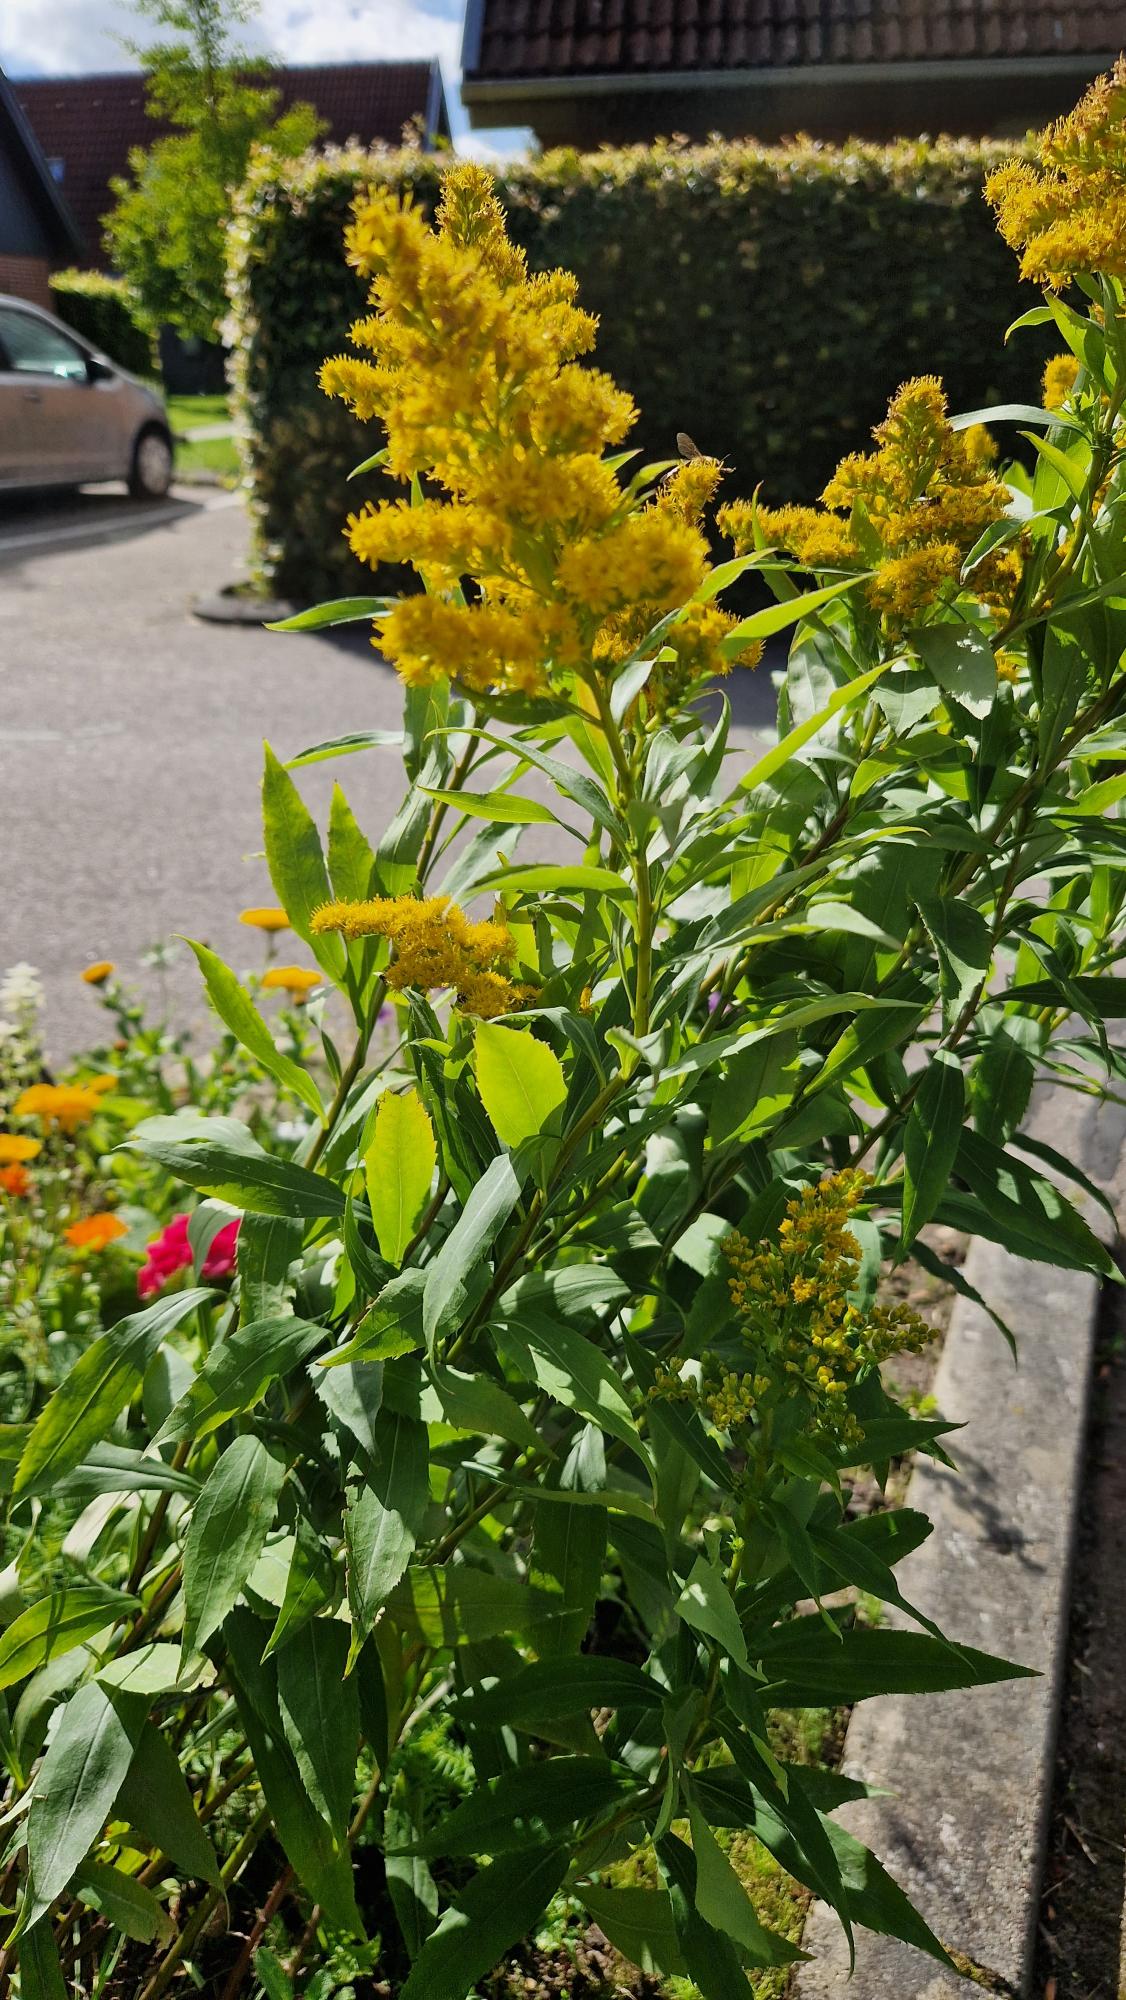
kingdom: Plantae
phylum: Tracheophyta
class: Magnoliopsida
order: Asterales
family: Asteraceae
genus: Solidago
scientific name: Solidago gigantea
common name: Sildig gyldenris
